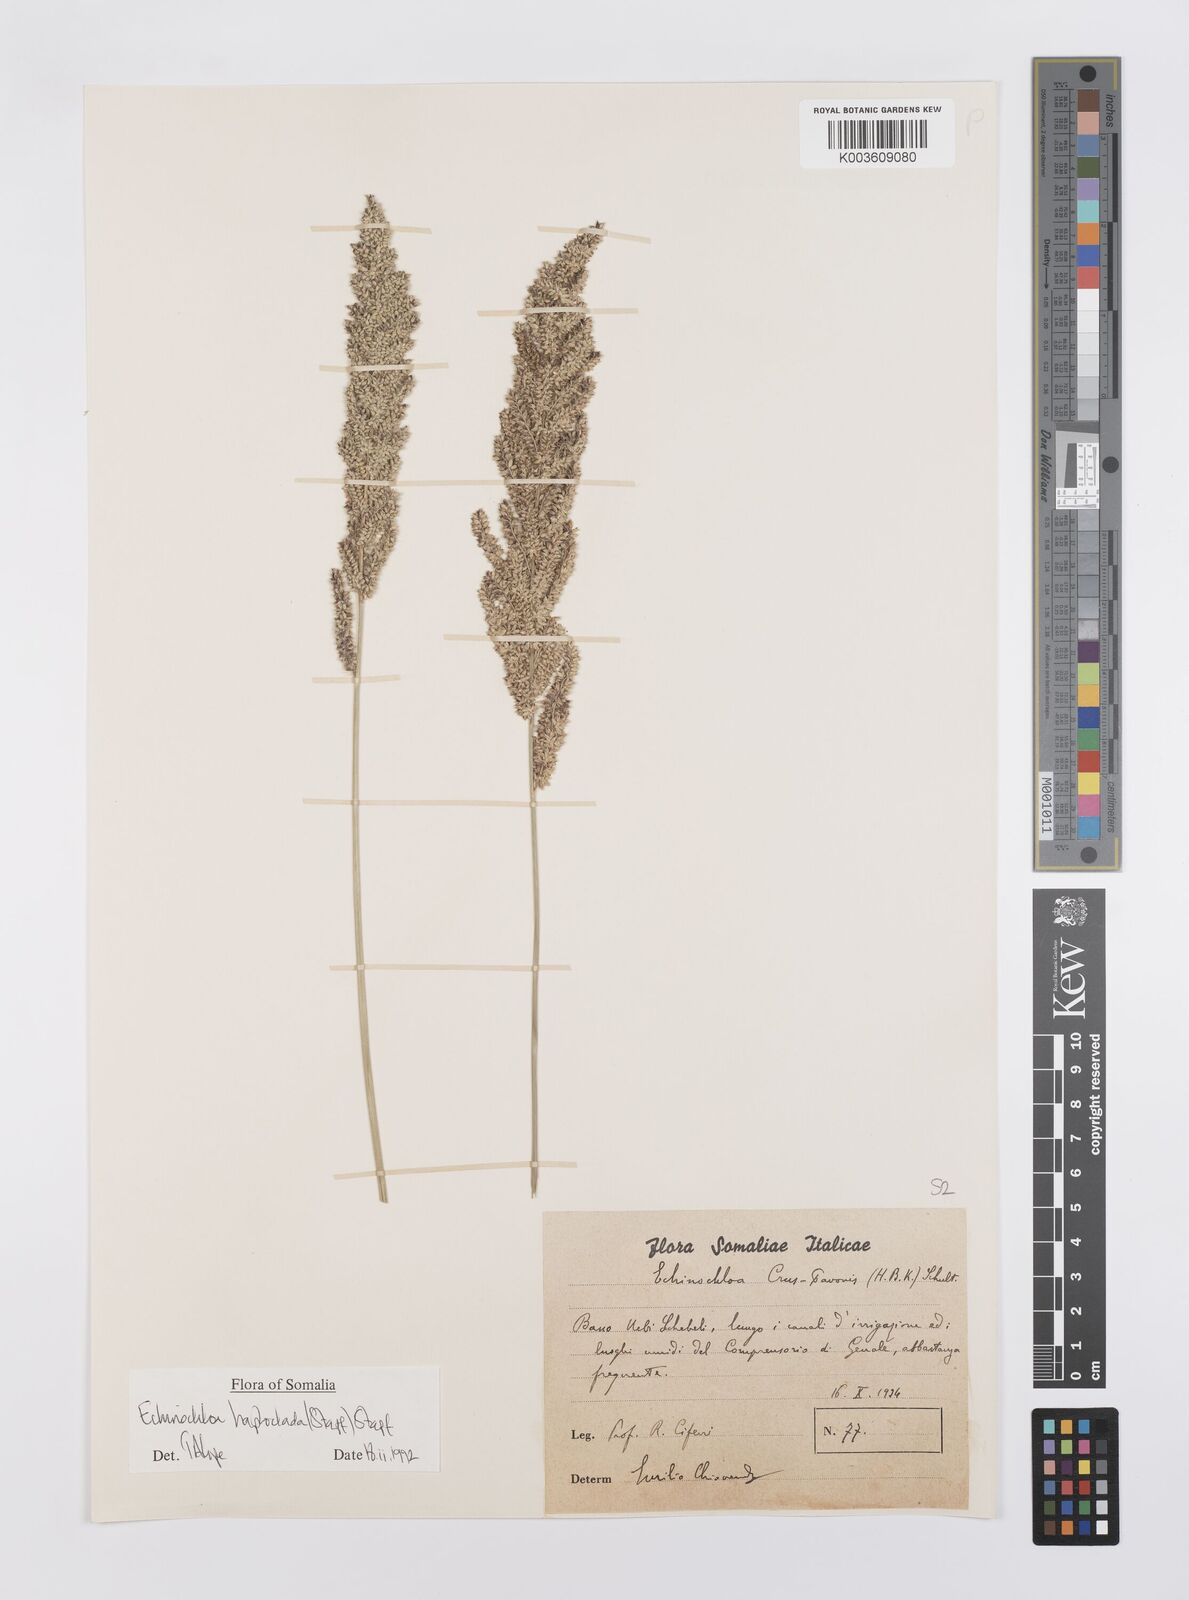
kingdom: Plantae
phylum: Tracheophyta
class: Liliopsida
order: Poales
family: Poaceae
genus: Echinochloa
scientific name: Echinochloa haploclada
